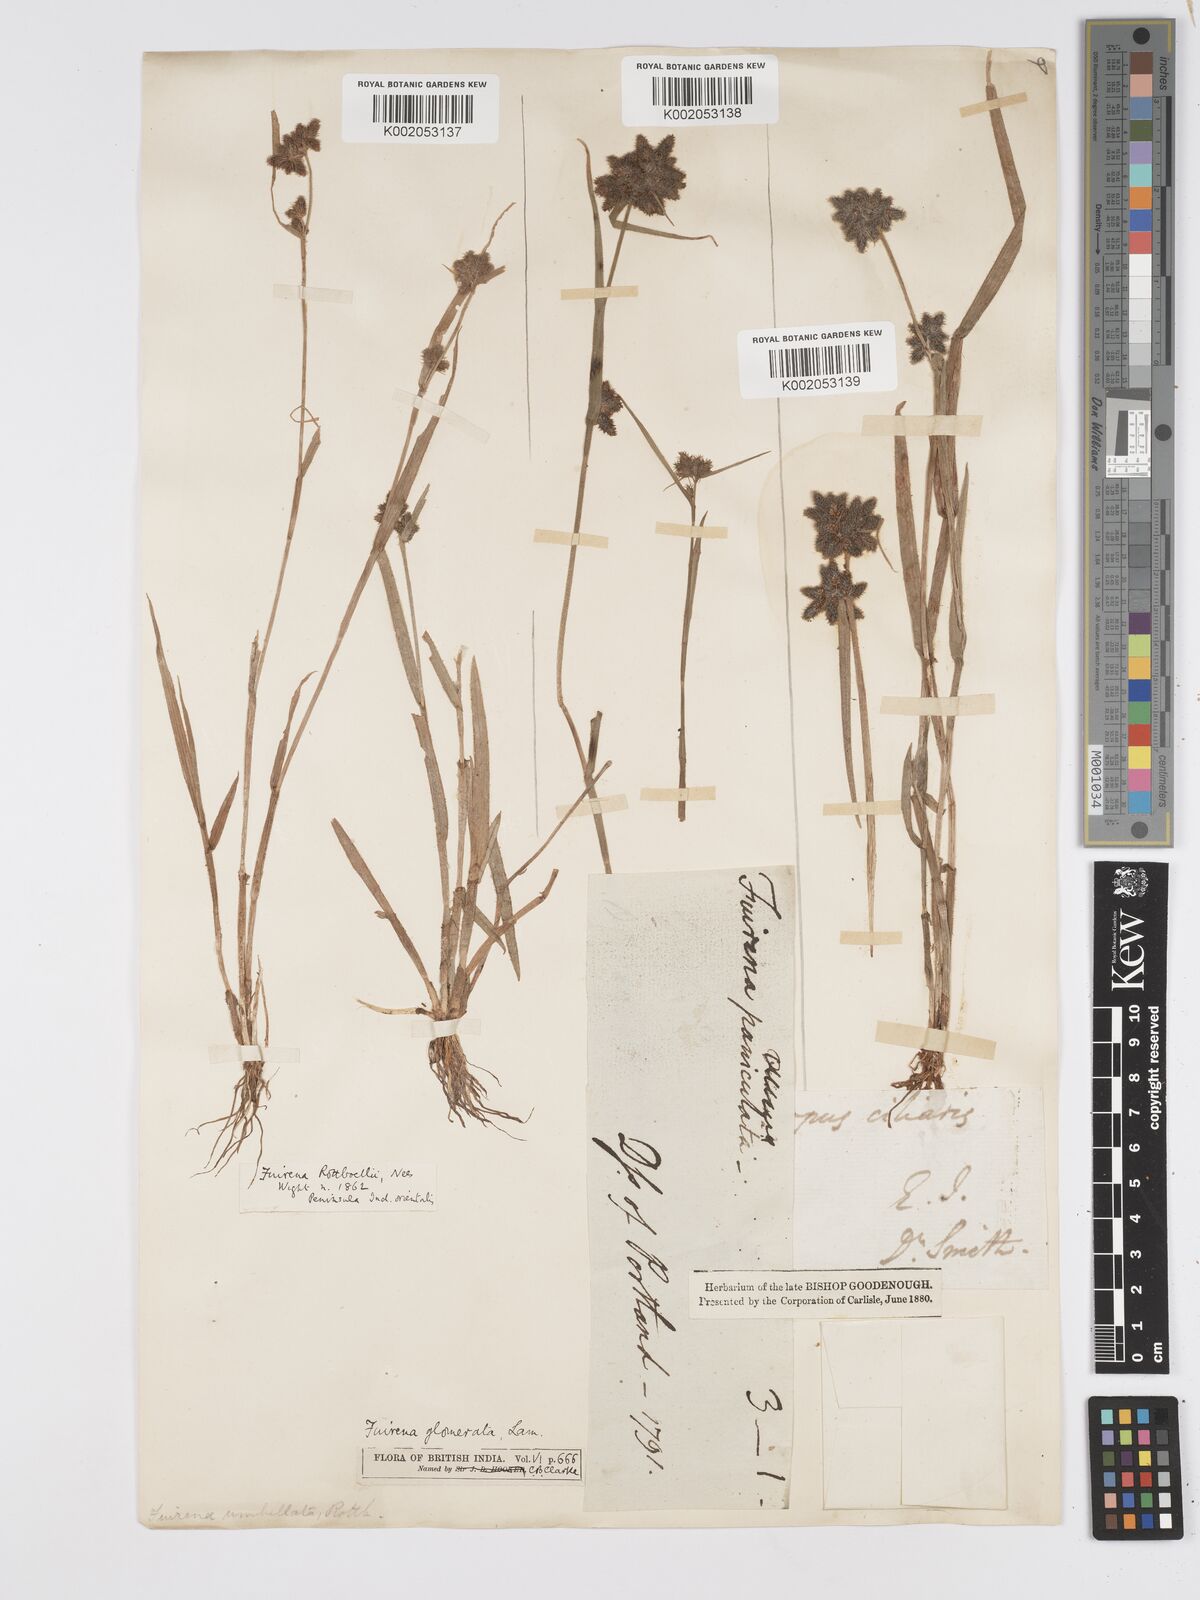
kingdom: Plantae
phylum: Tracheophyta
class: Liliopsida
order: Poales
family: Cyperaceae
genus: Fuirena
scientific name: Fuirena ciliaris
